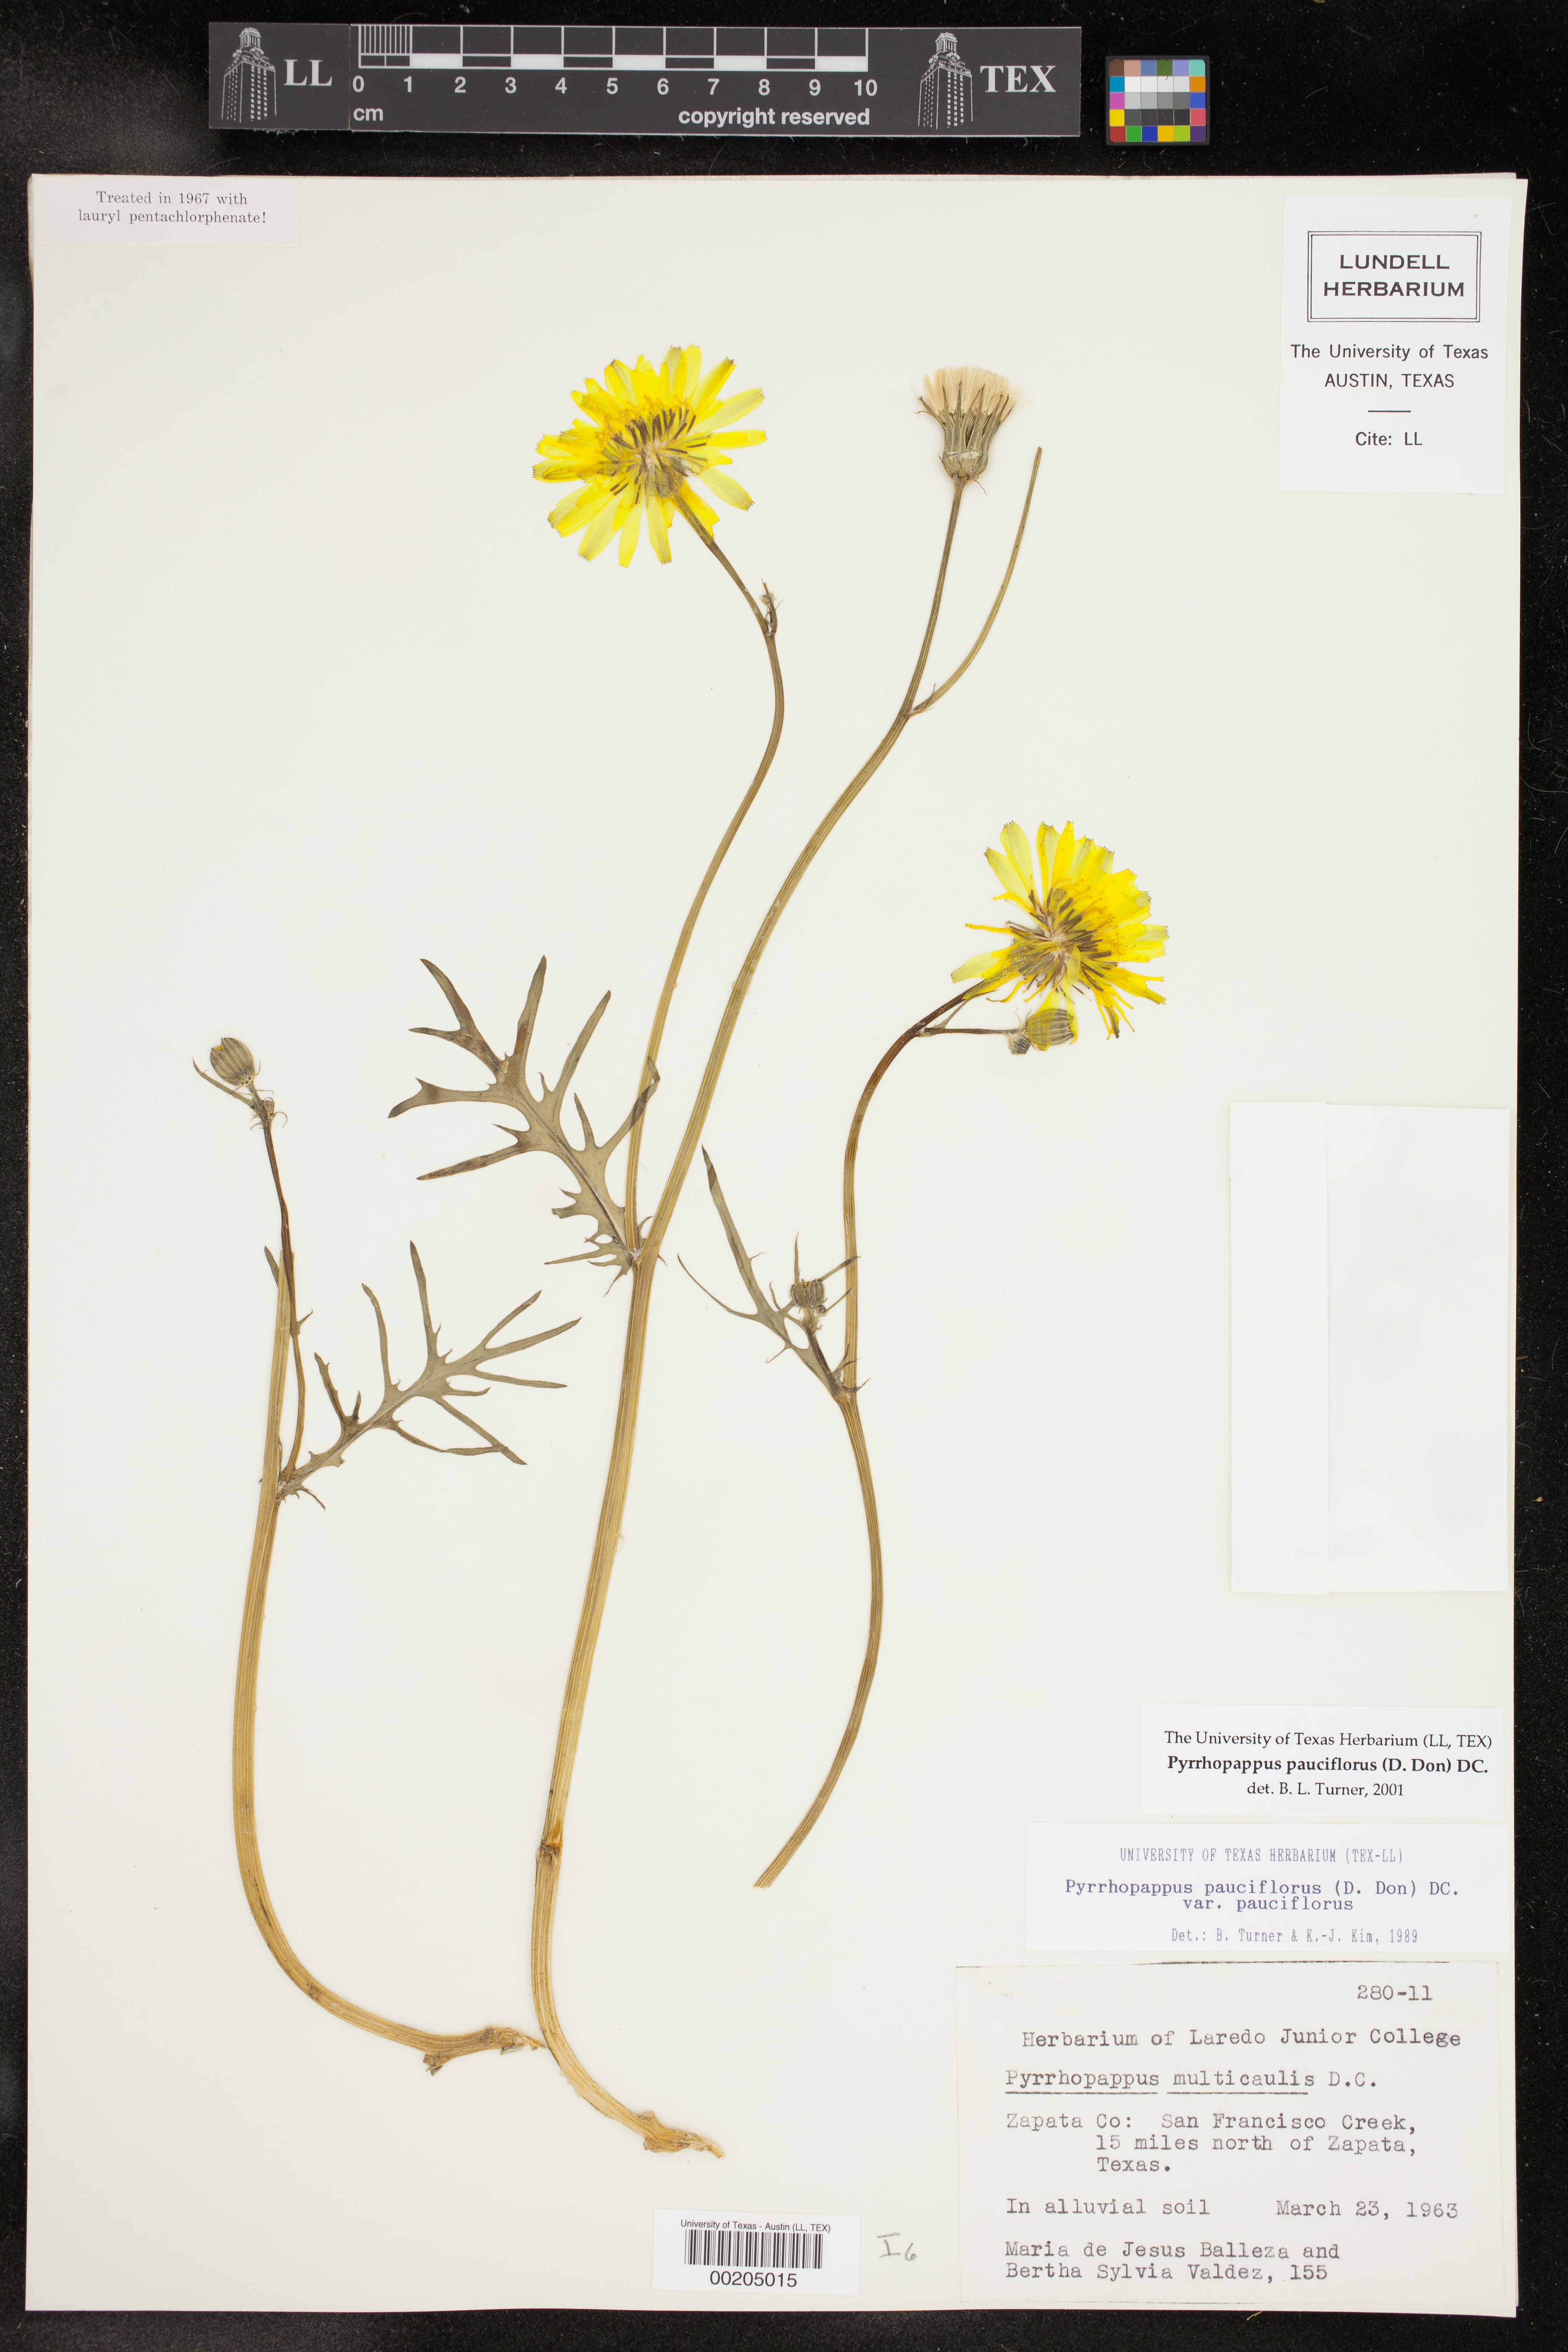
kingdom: Plantae
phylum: Tracheophyta
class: Magnoliopsida
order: Asterales
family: Asteraceae
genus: Pyrrhopappus
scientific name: Pyrrhopappus pauciflorus
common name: Texas false dandelion
